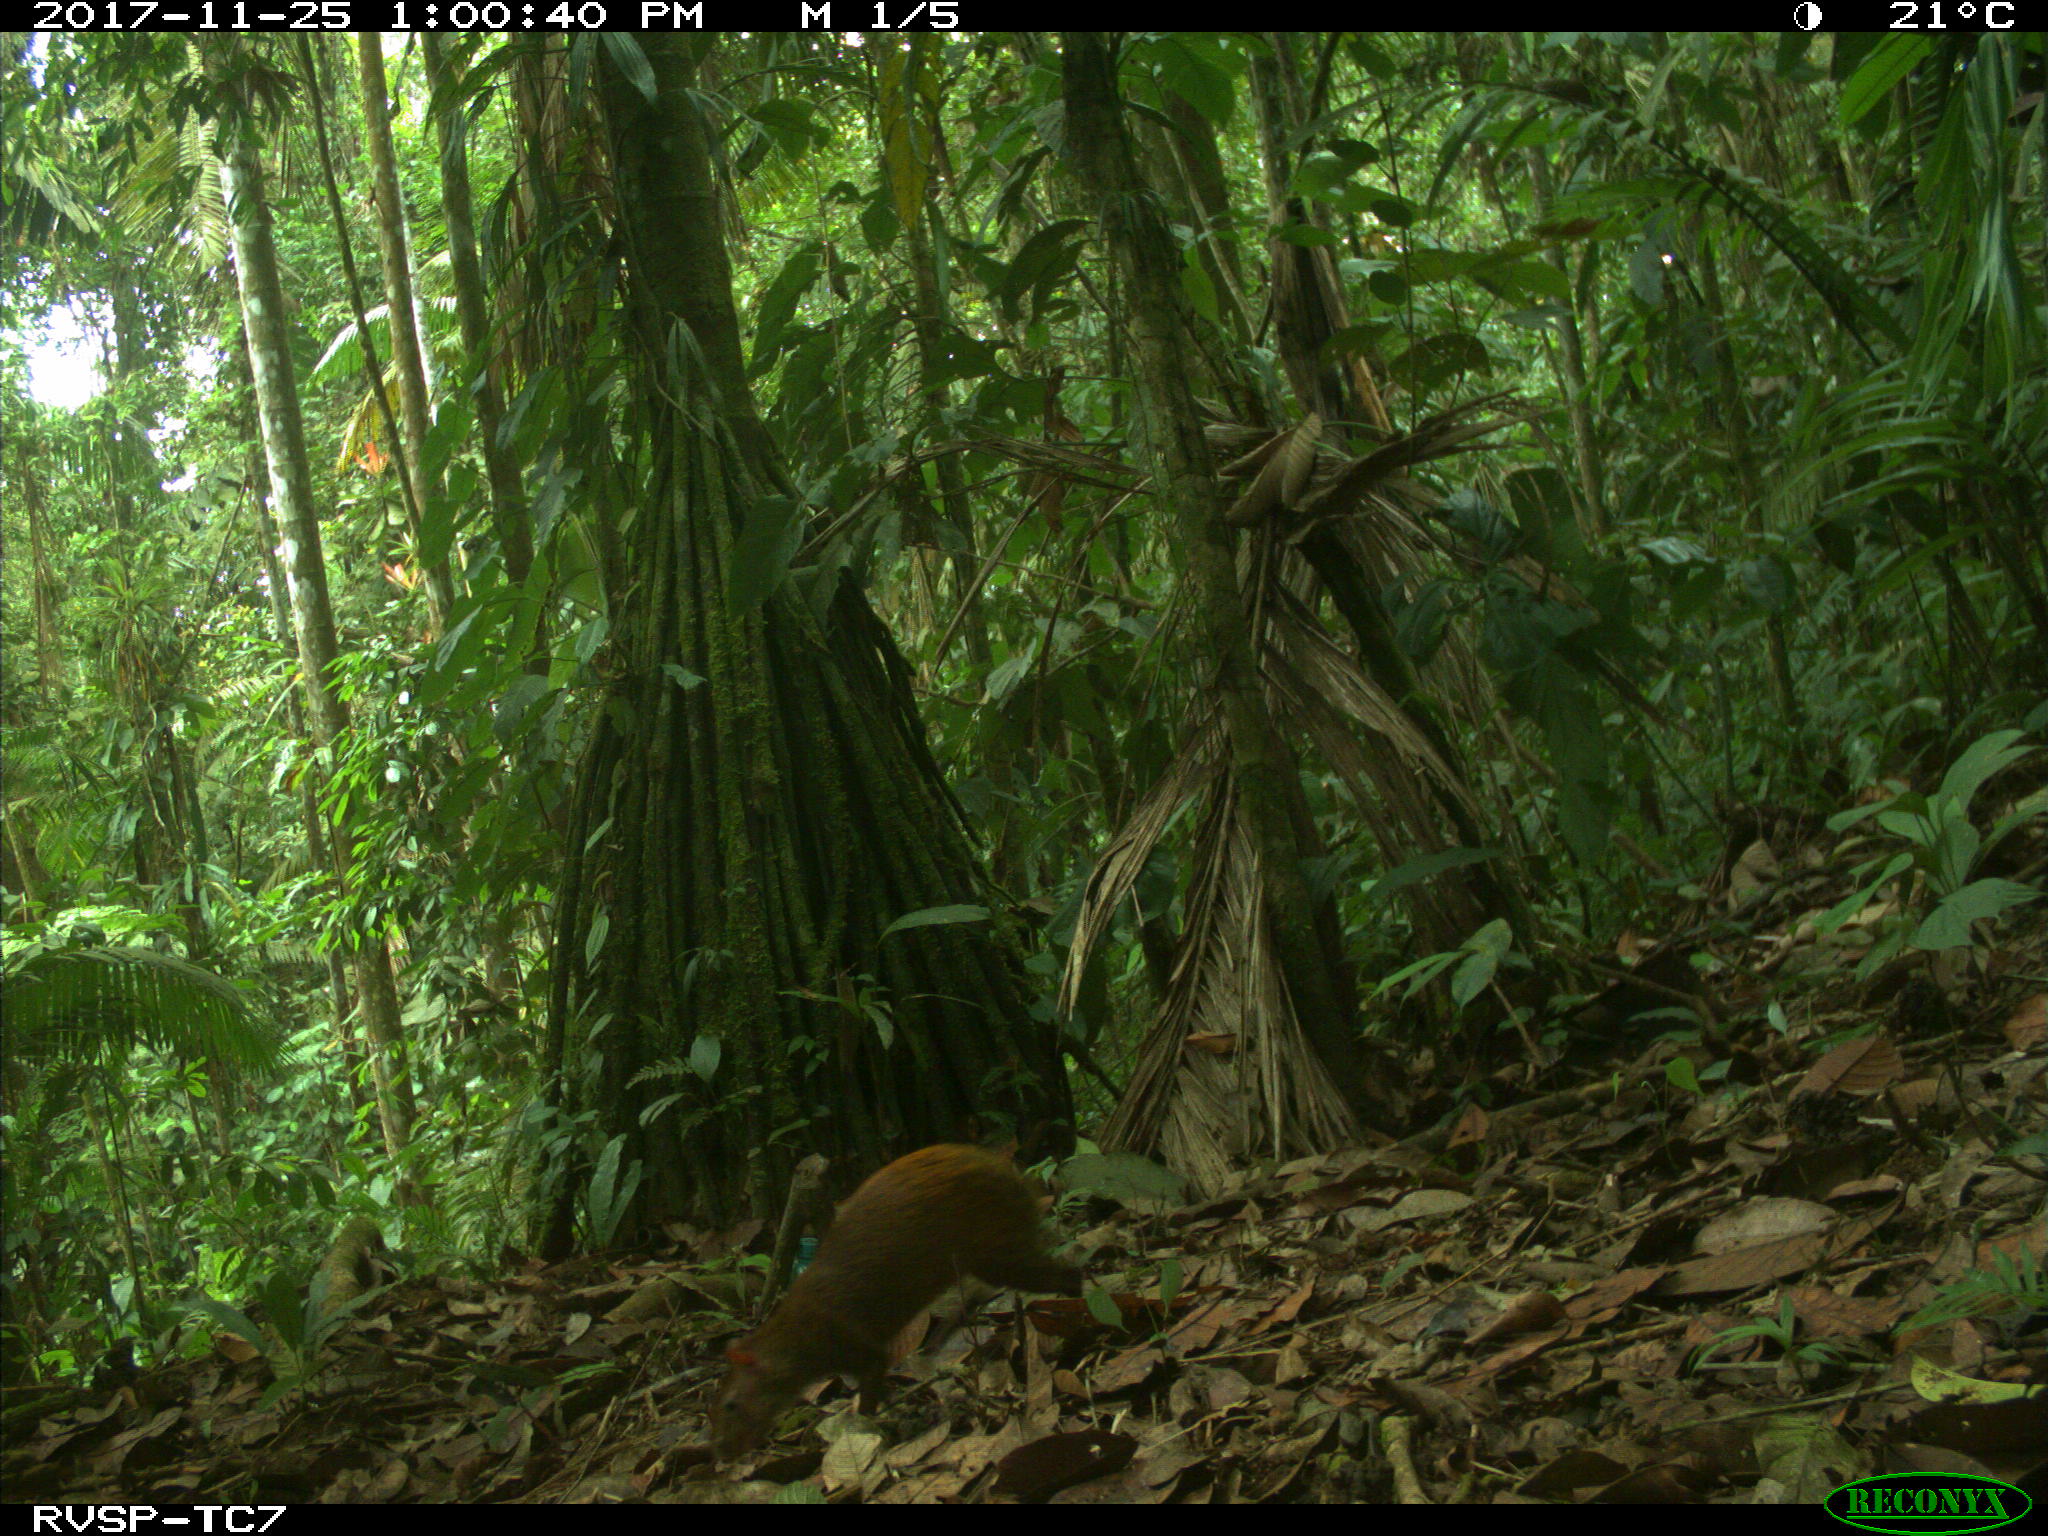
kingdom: Animalia
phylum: Chordata
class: Mammalia
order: Rodentia
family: Dasyproctidae
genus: Dasyprocta
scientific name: Dasyprocta punctata
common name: Central american agouti
